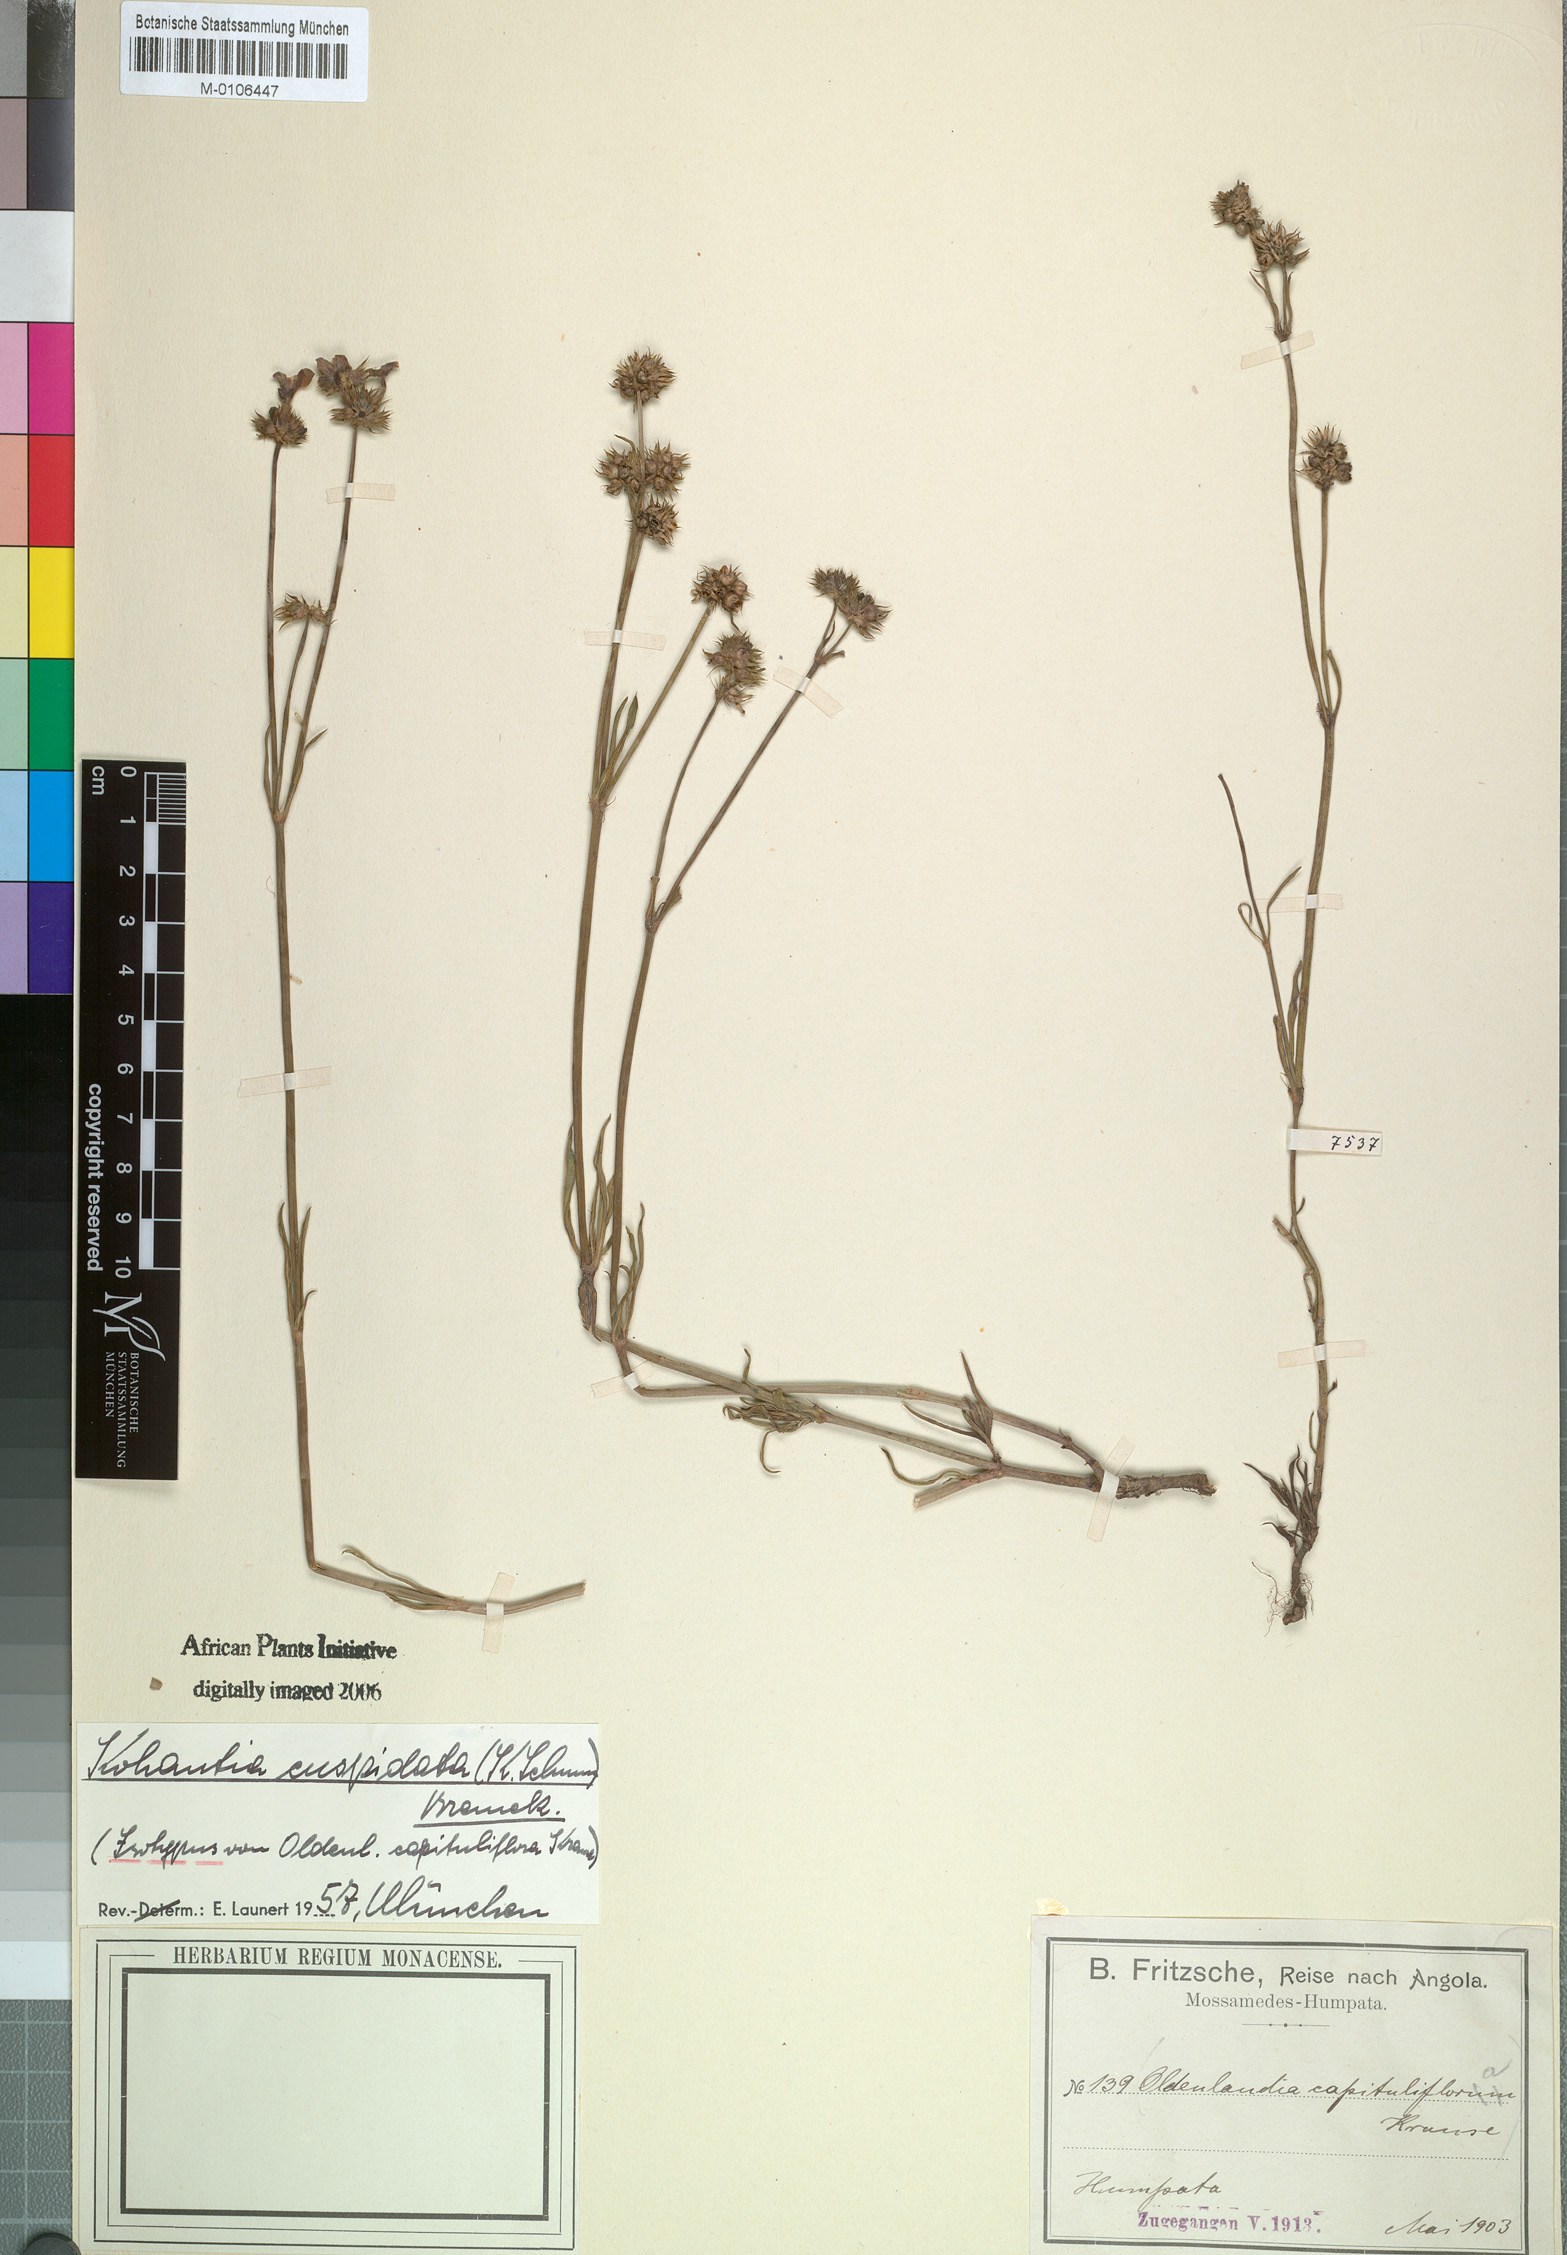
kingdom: Plantae
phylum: Tracheophyta
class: Magnoliopsida
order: Gentianales
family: Rubiaceae
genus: Cordylostigma
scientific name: Cordylostigma cuspidatum
